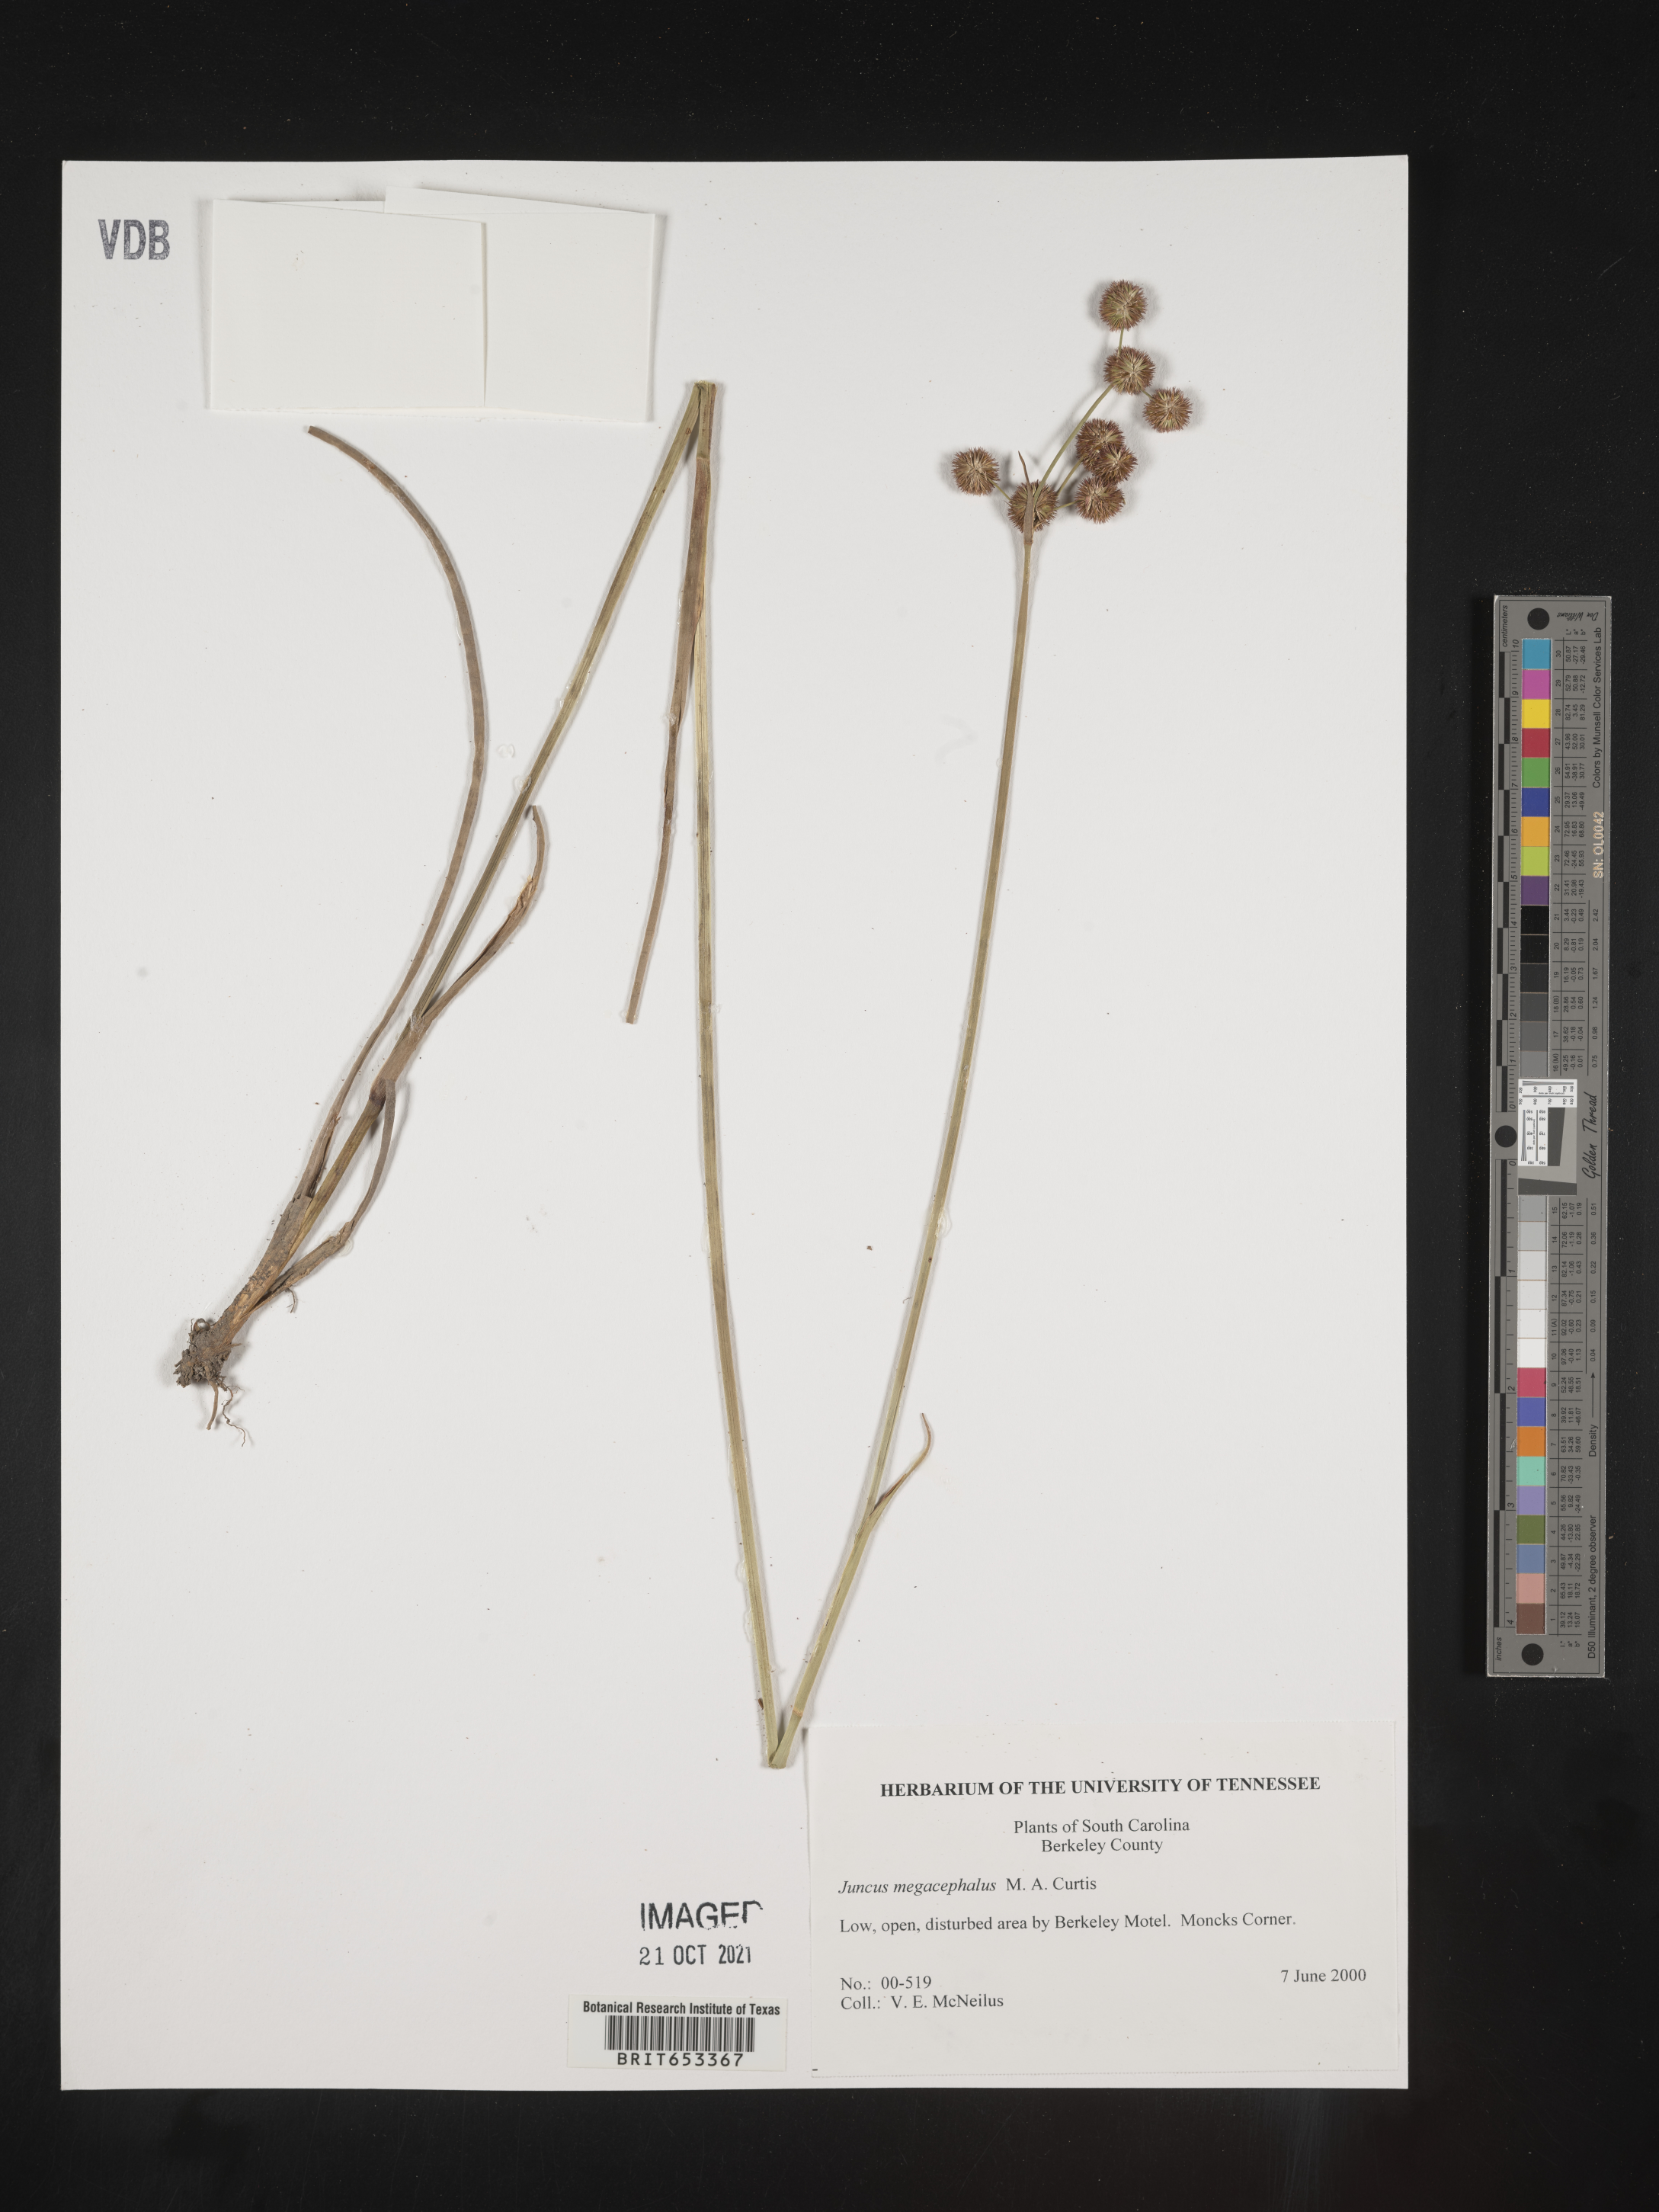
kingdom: Plantae
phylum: Tracheophyta
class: Liliopsida
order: Poales
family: Juncaceae
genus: Juncus
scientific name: Juncus megacephalus
